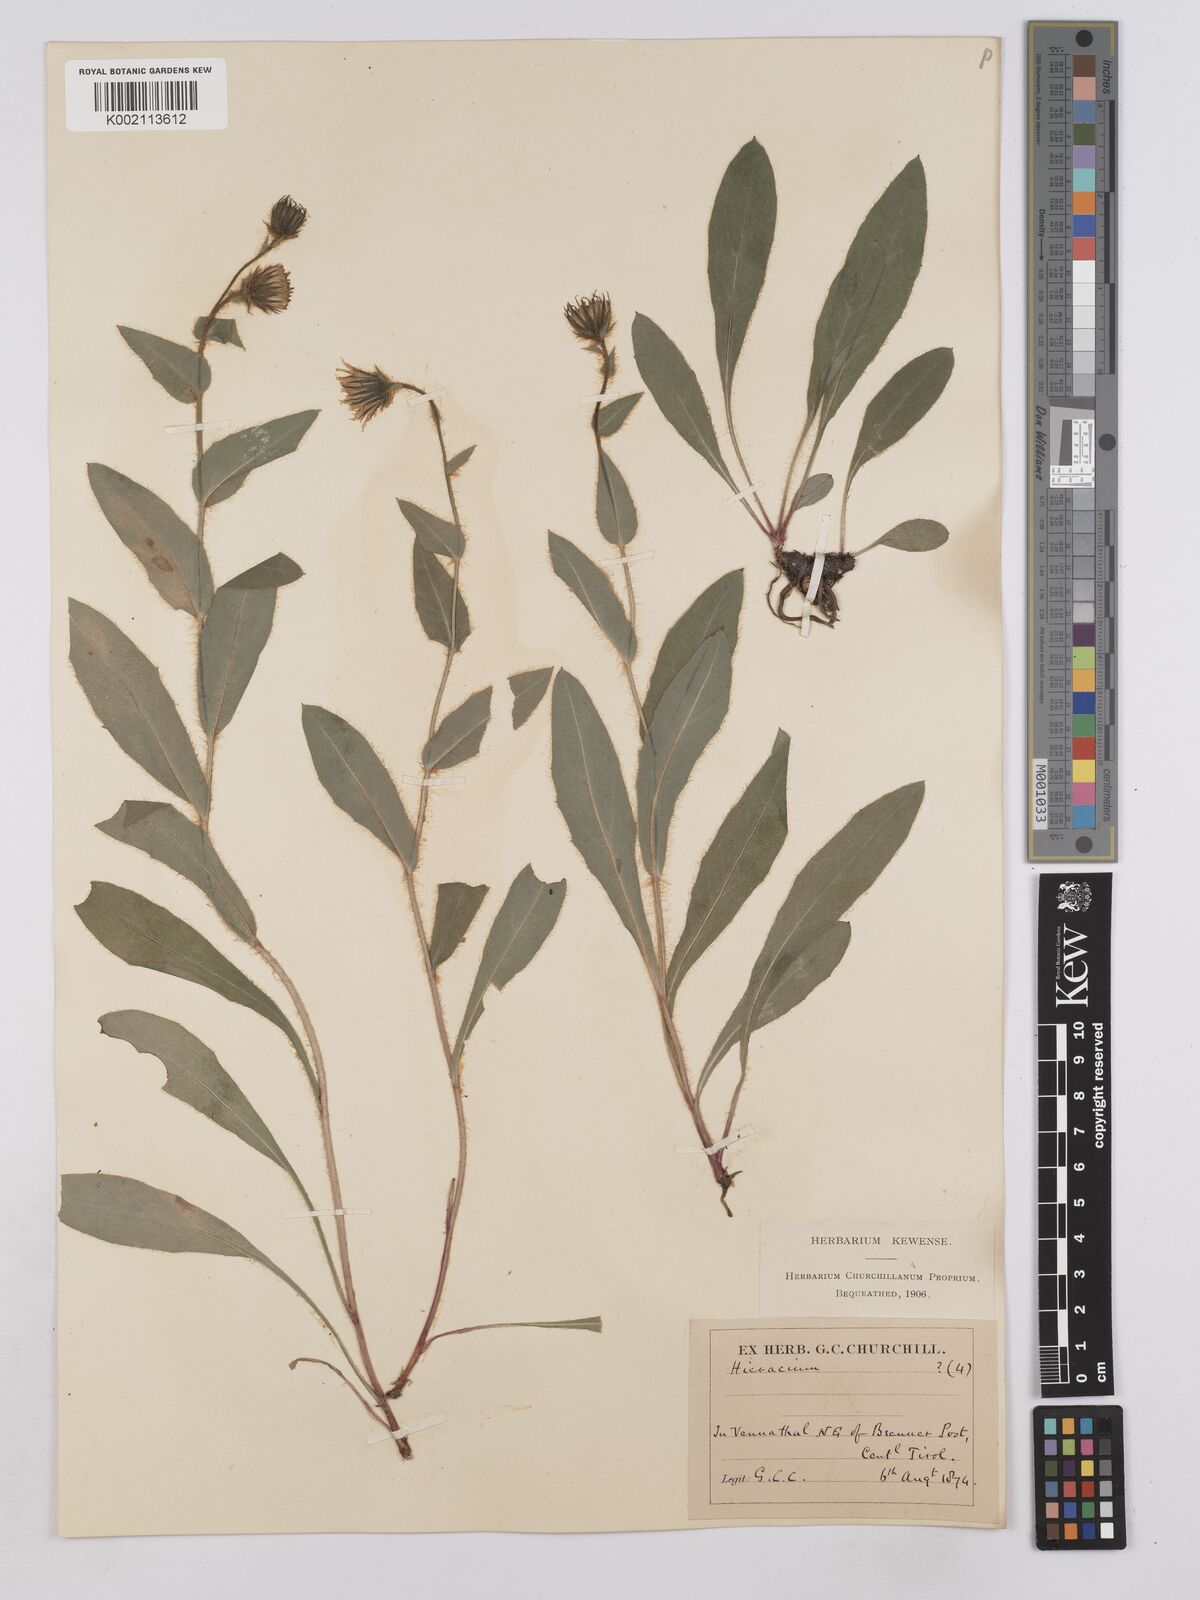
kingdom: Plantae
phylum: Tracheophyta
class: Magnoliopsida
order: Asterales
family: Asteraceae
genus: Hieracium
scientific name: Hieracium villosum
